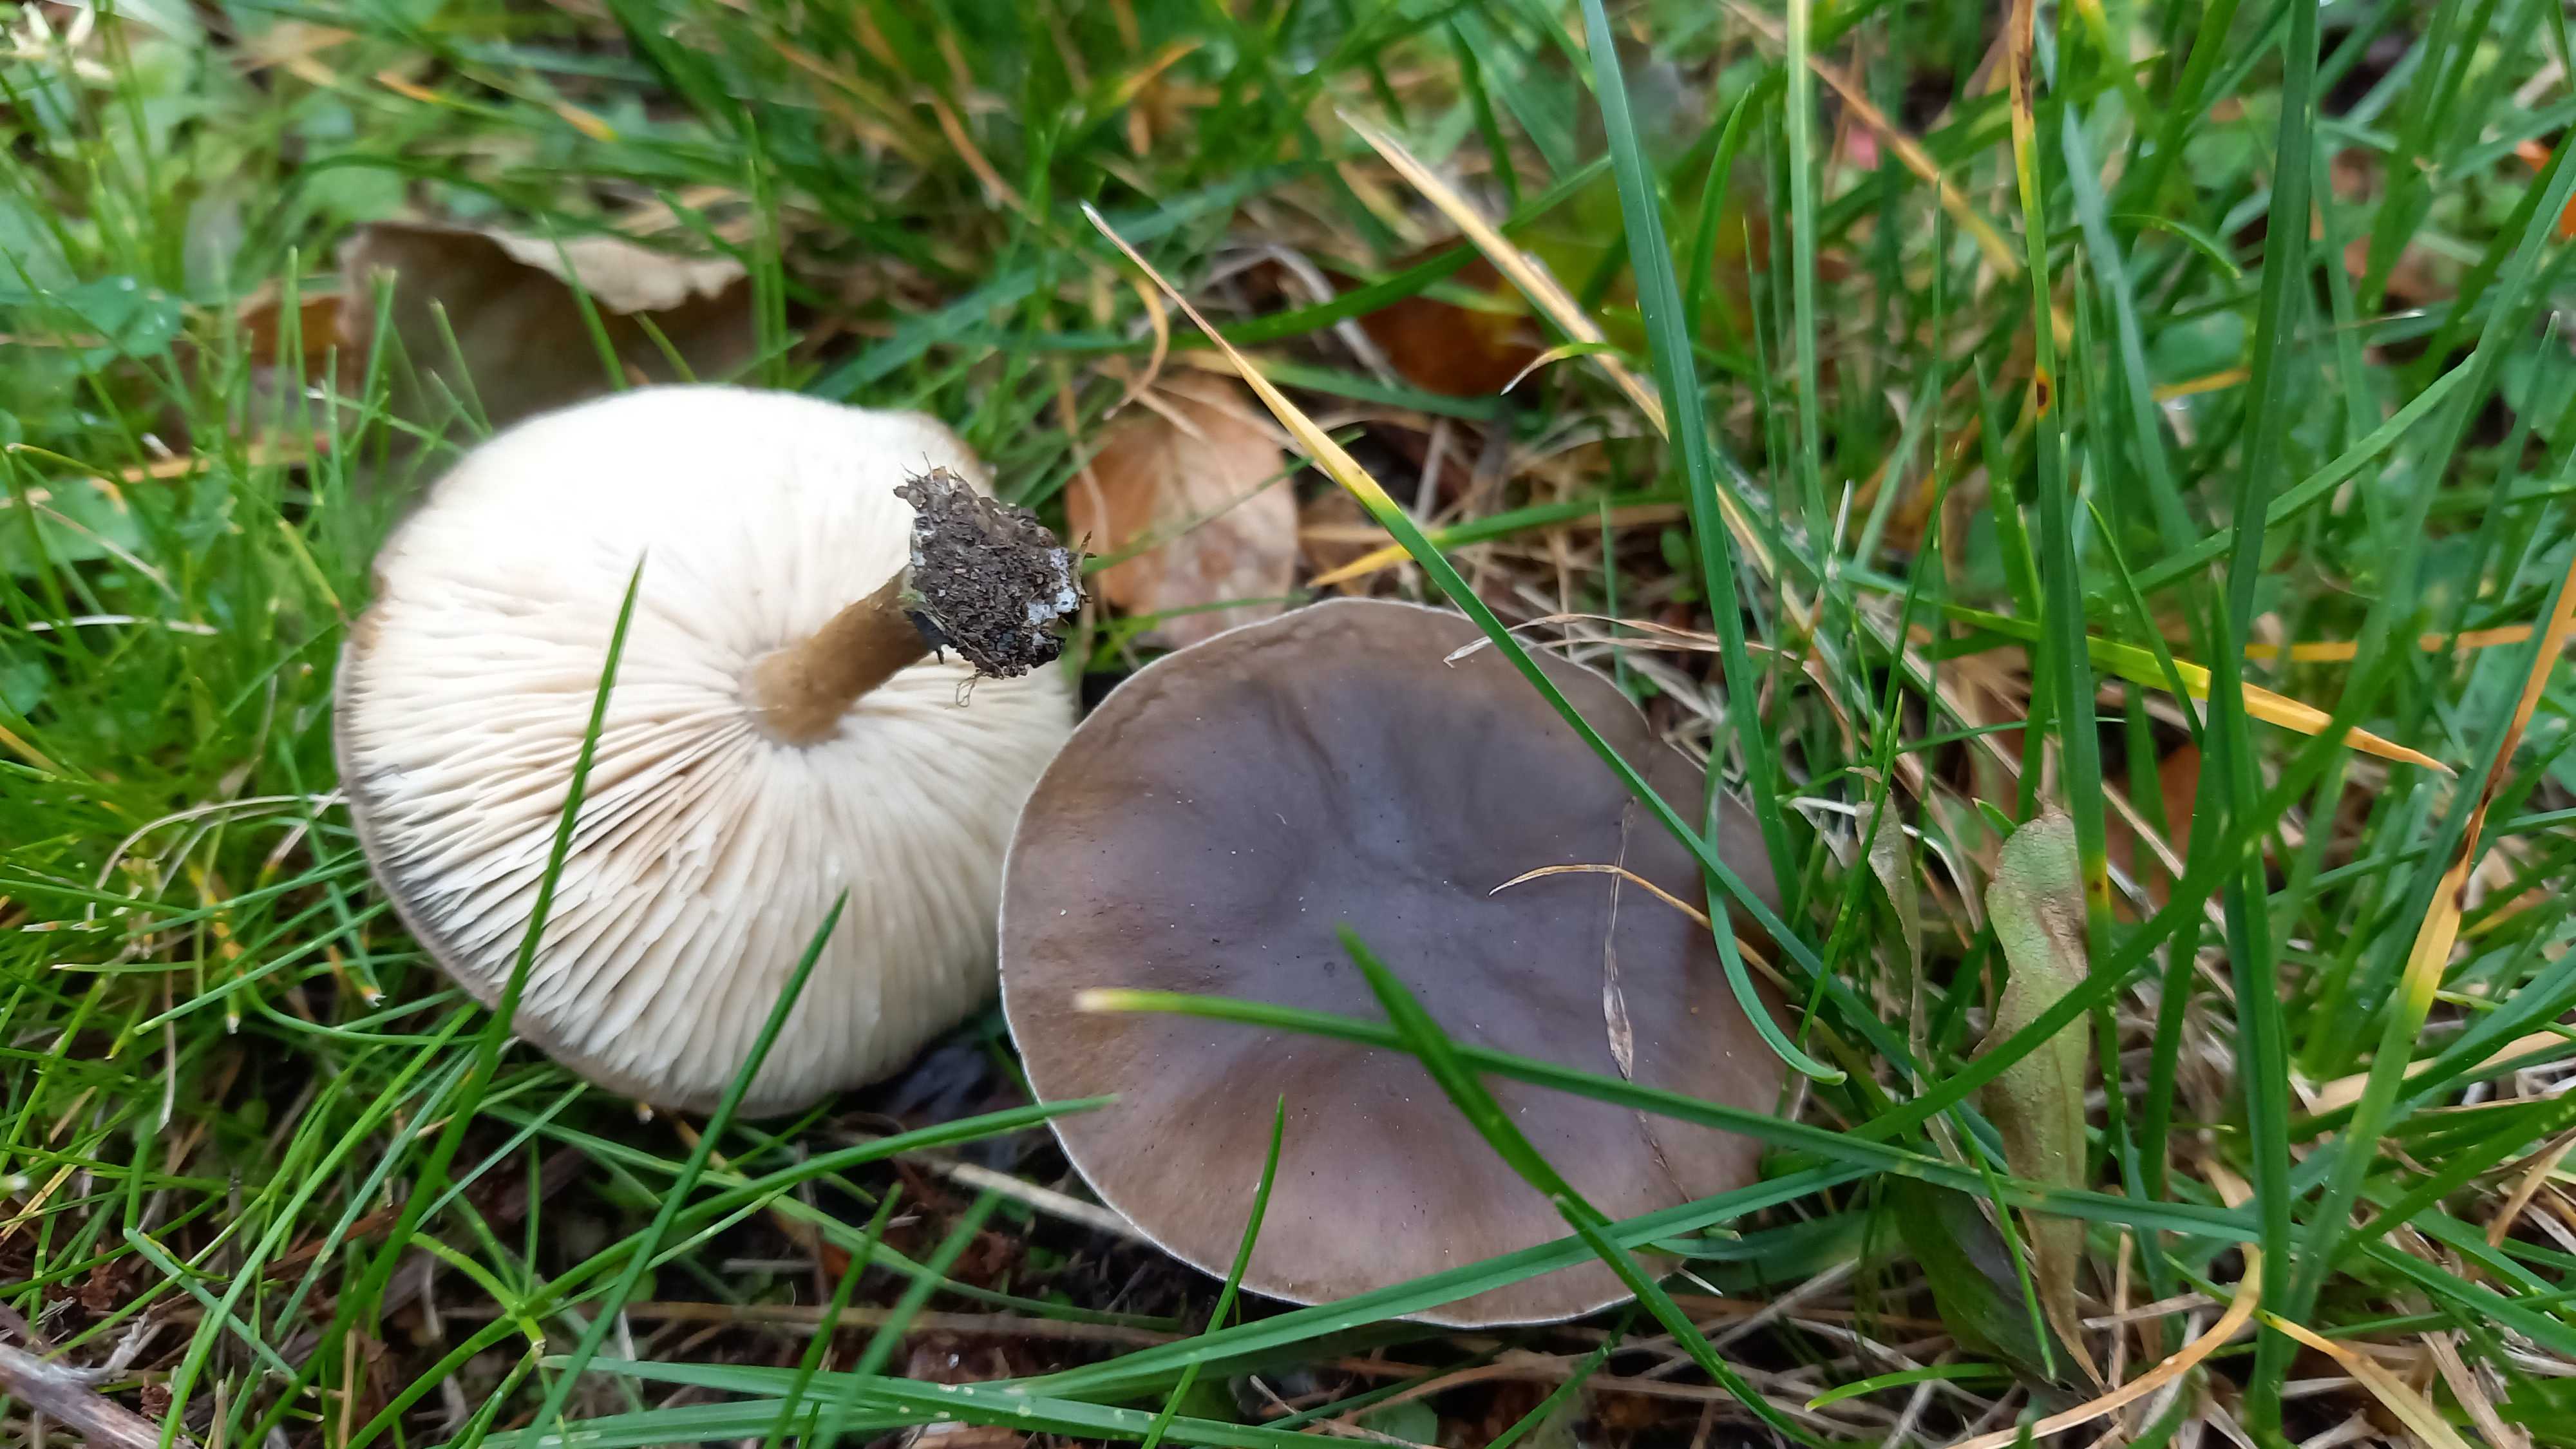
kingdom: Fungi
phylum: Basidiomycota
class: Agaricomycetes
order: Agaricales
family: Tricholomataceae
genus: Melanoleuca
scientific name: Melanoleuca
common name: munkehat
